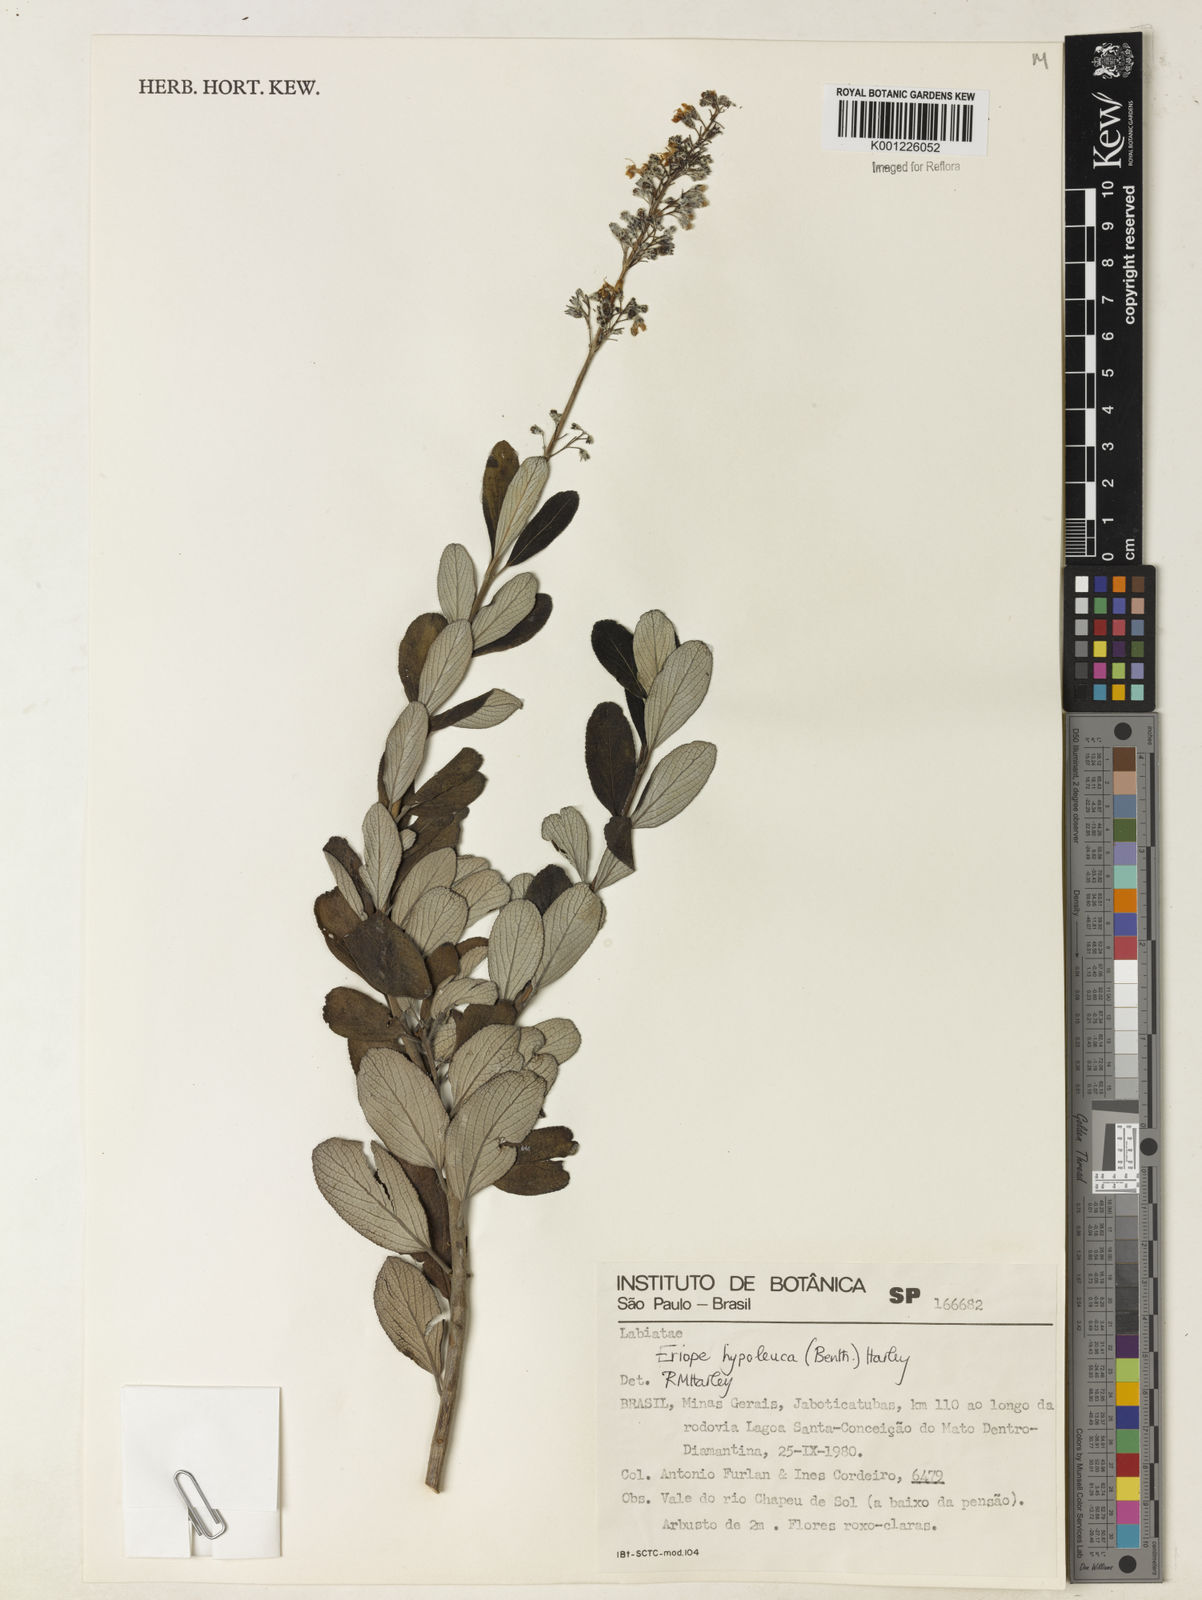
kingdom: Plantae
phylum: Tracheophyta
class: Magnoliopsida
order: Lamiales
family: Lamiaceae
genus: Eriope
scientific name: Eriope hypoleuca
